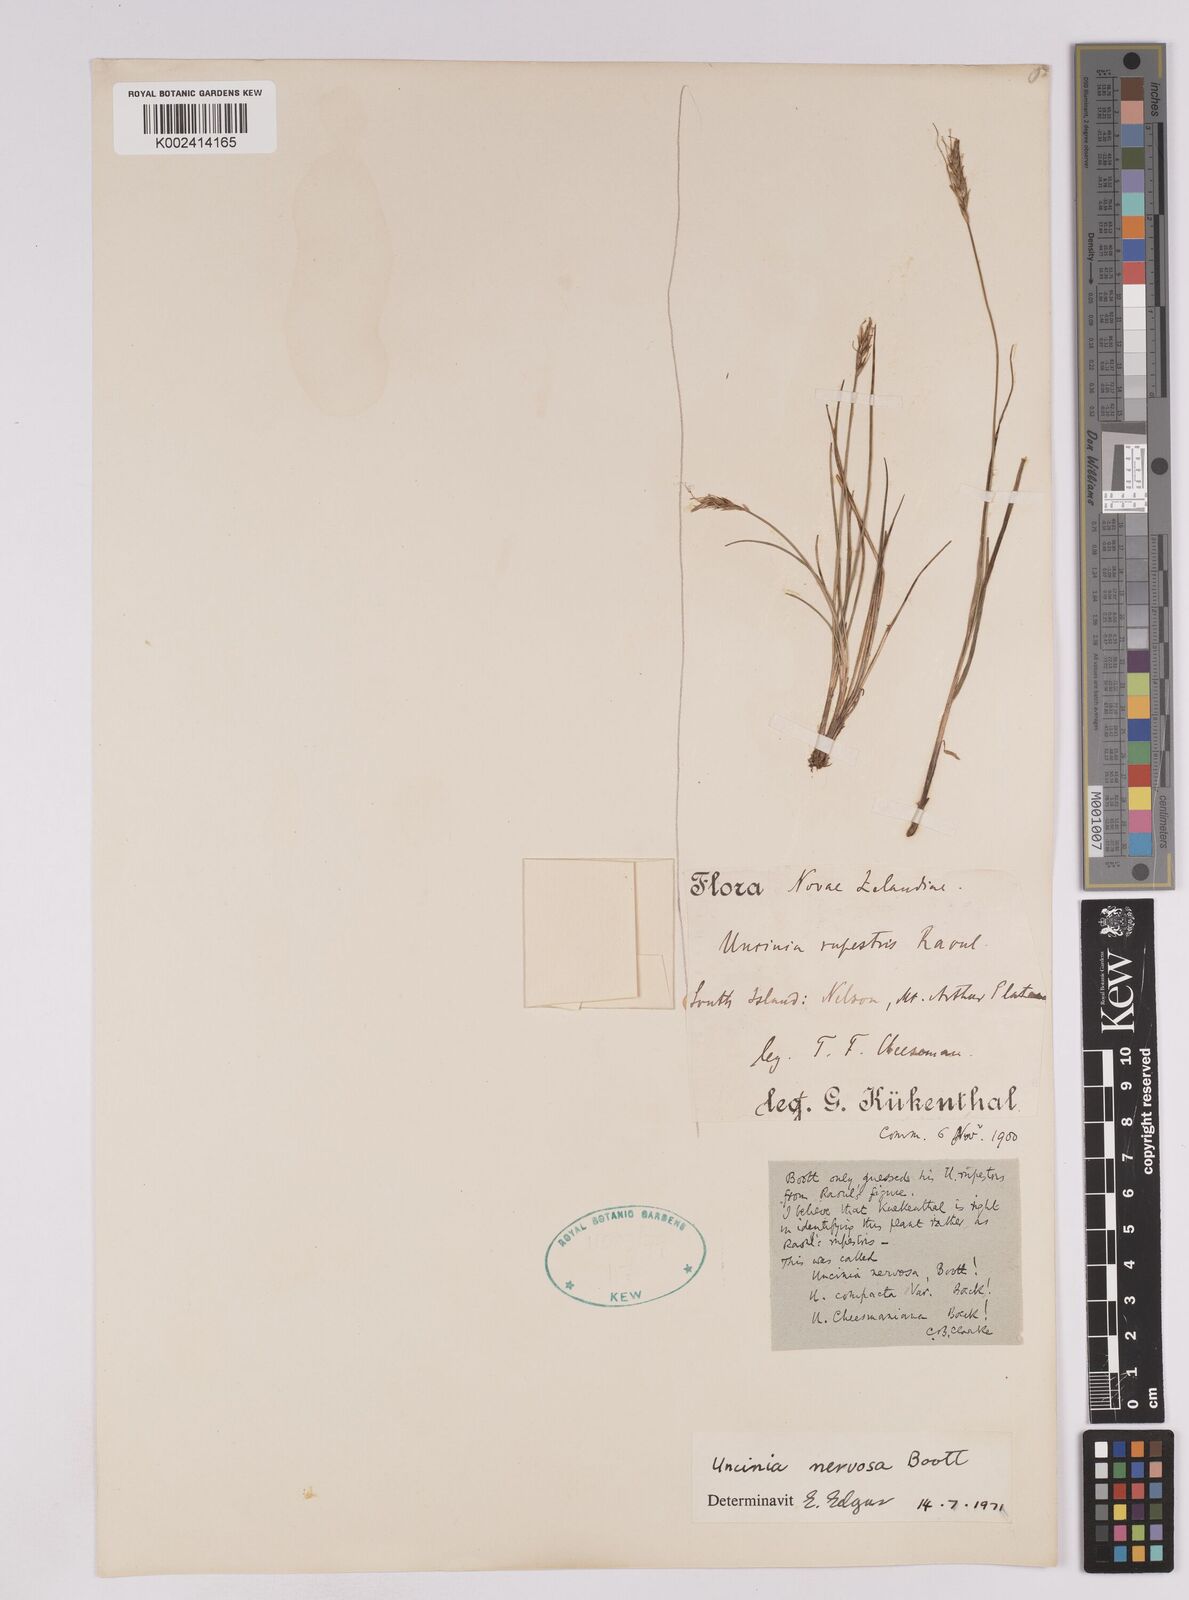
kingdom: Plantae
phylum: Tracheophyta
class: Liliopsida
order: Poales
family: Cyperaceae
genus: Carex
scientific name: Carex cheesemanniana
